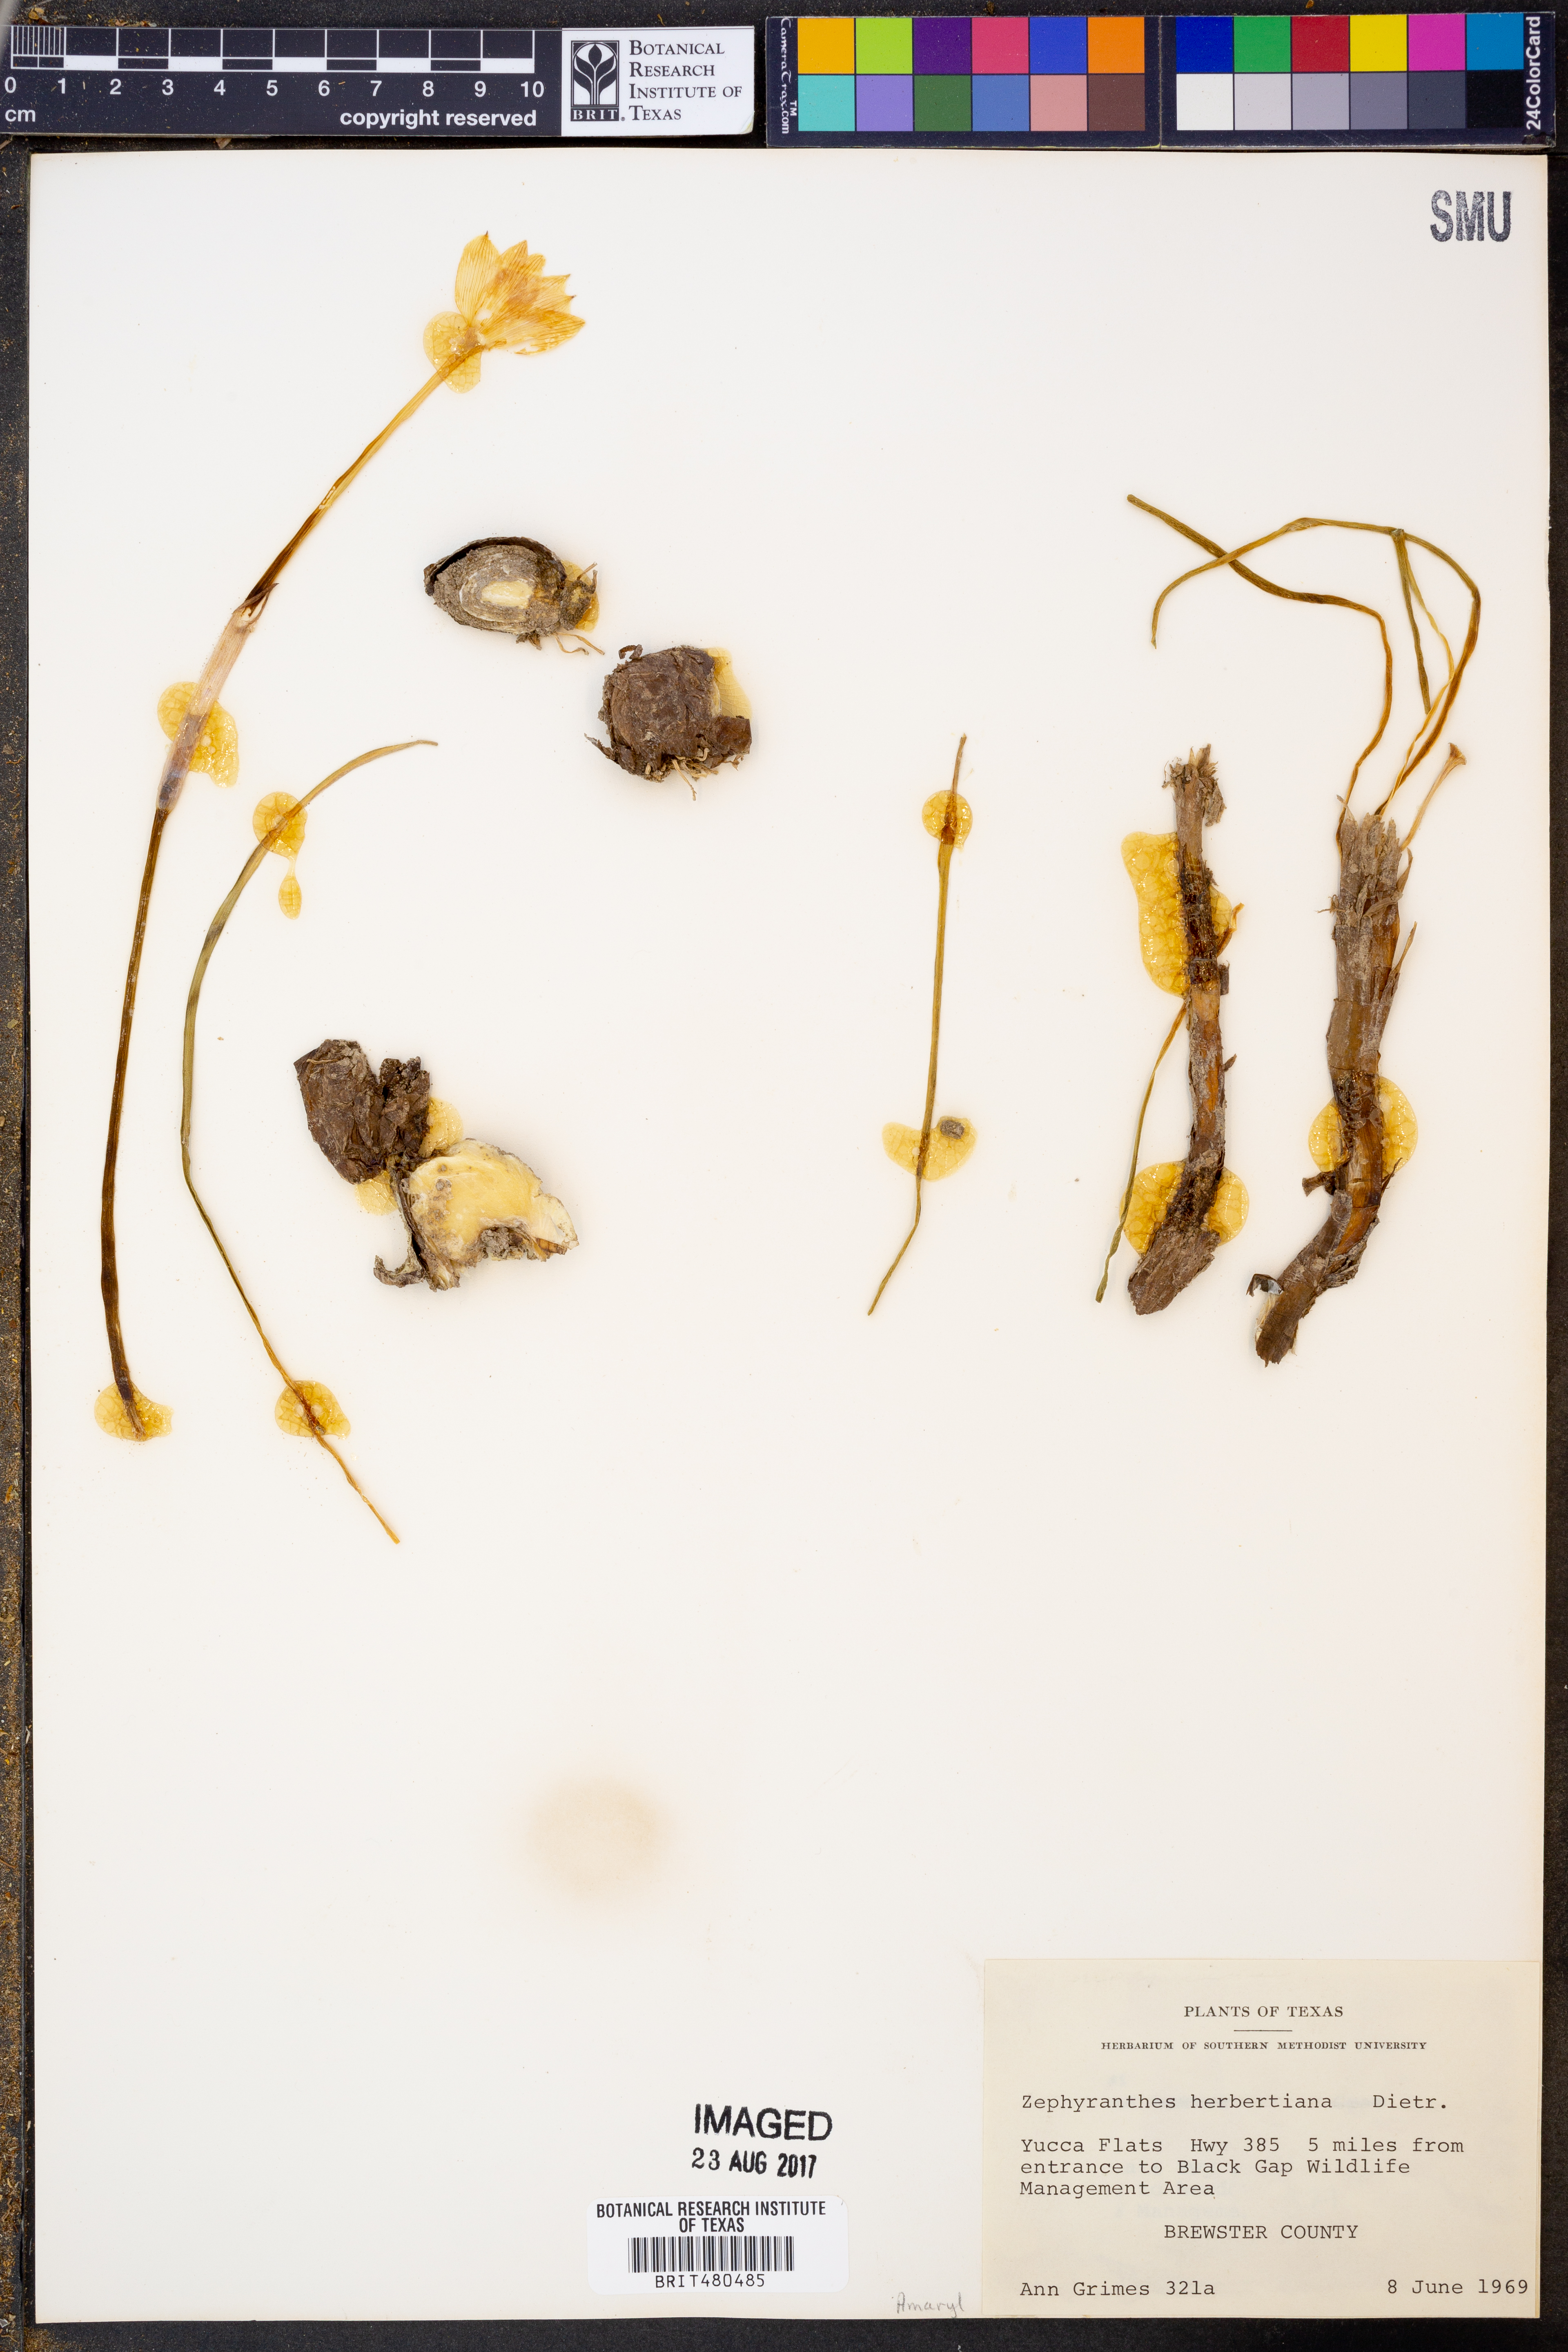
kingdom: Plantae
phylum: Tracheophyta
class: Liliopsida
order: Asparagales
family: Amaryllidaceae
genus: Zephyranthes
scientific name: Zephyranthes chlorosolen
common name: Evening rain-lily
